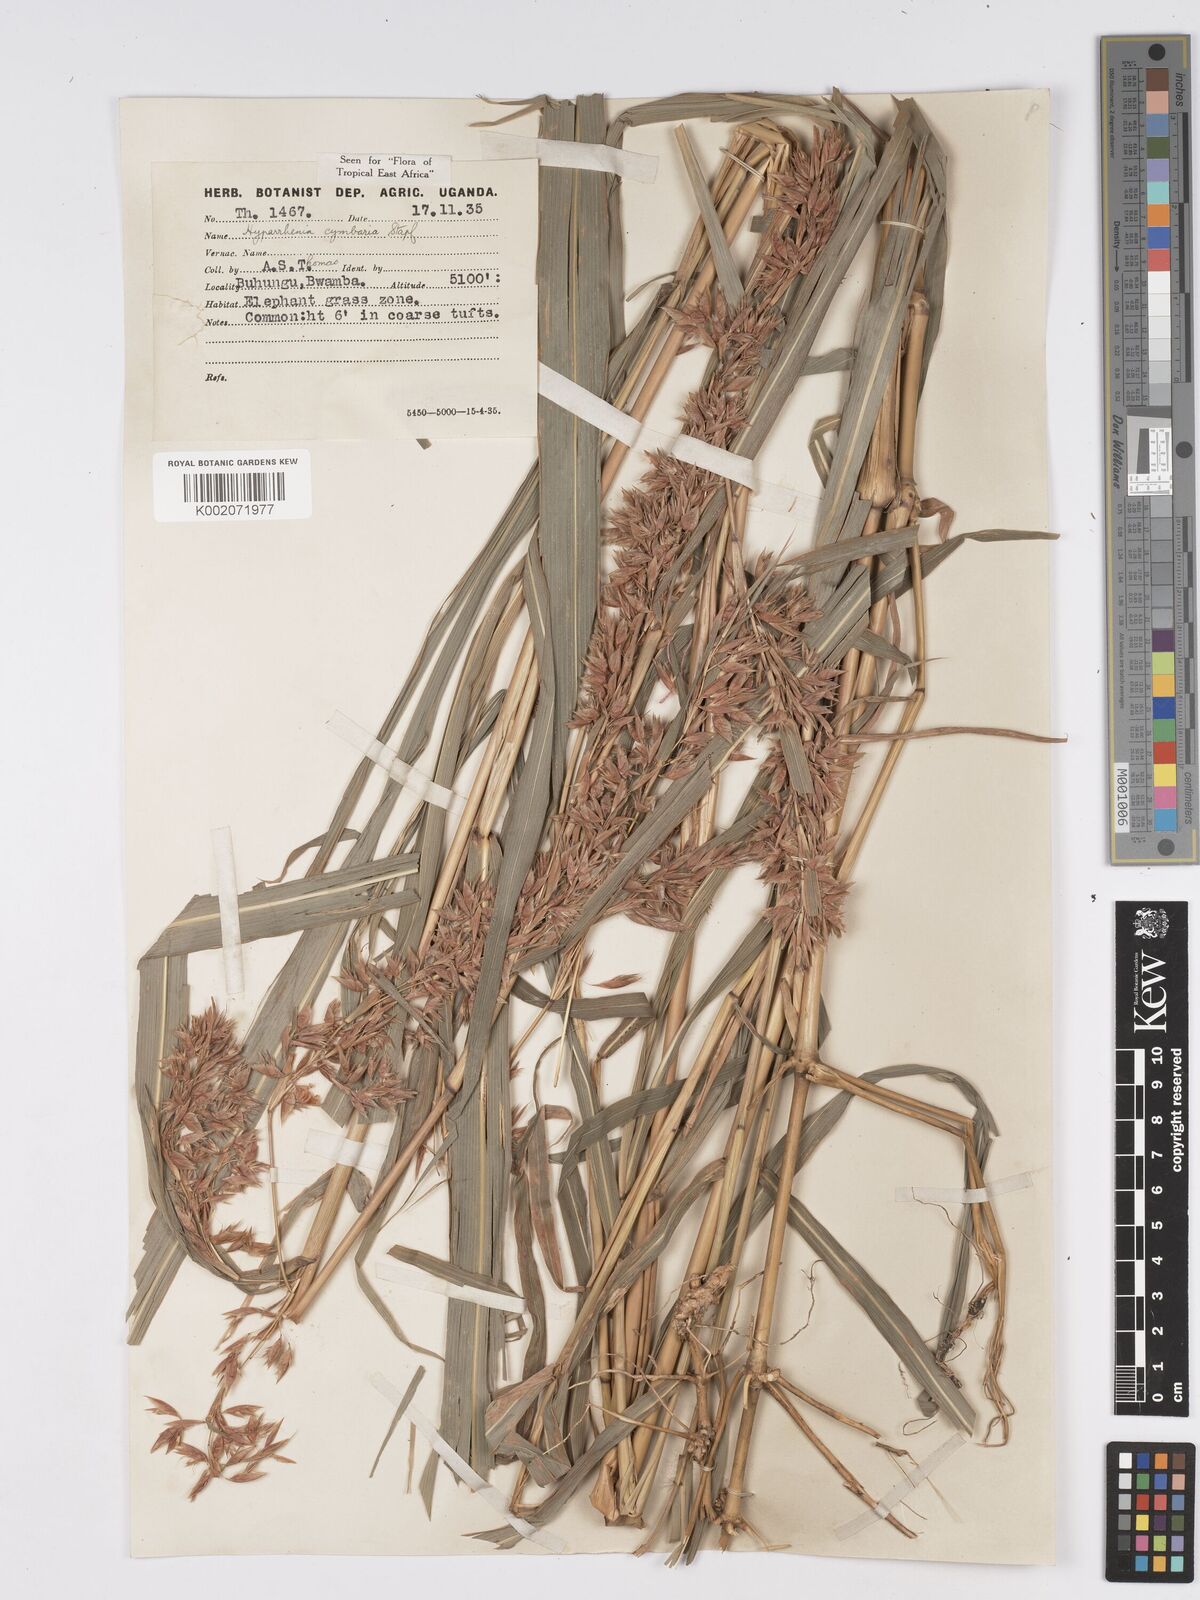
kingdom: Plantae
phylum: Tracheophyta
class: Liliopsida
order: Poales
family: Poaceae
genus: Hyparrhenia
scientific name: Hyparrhenia cymbaria
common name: Boat thatching grass
